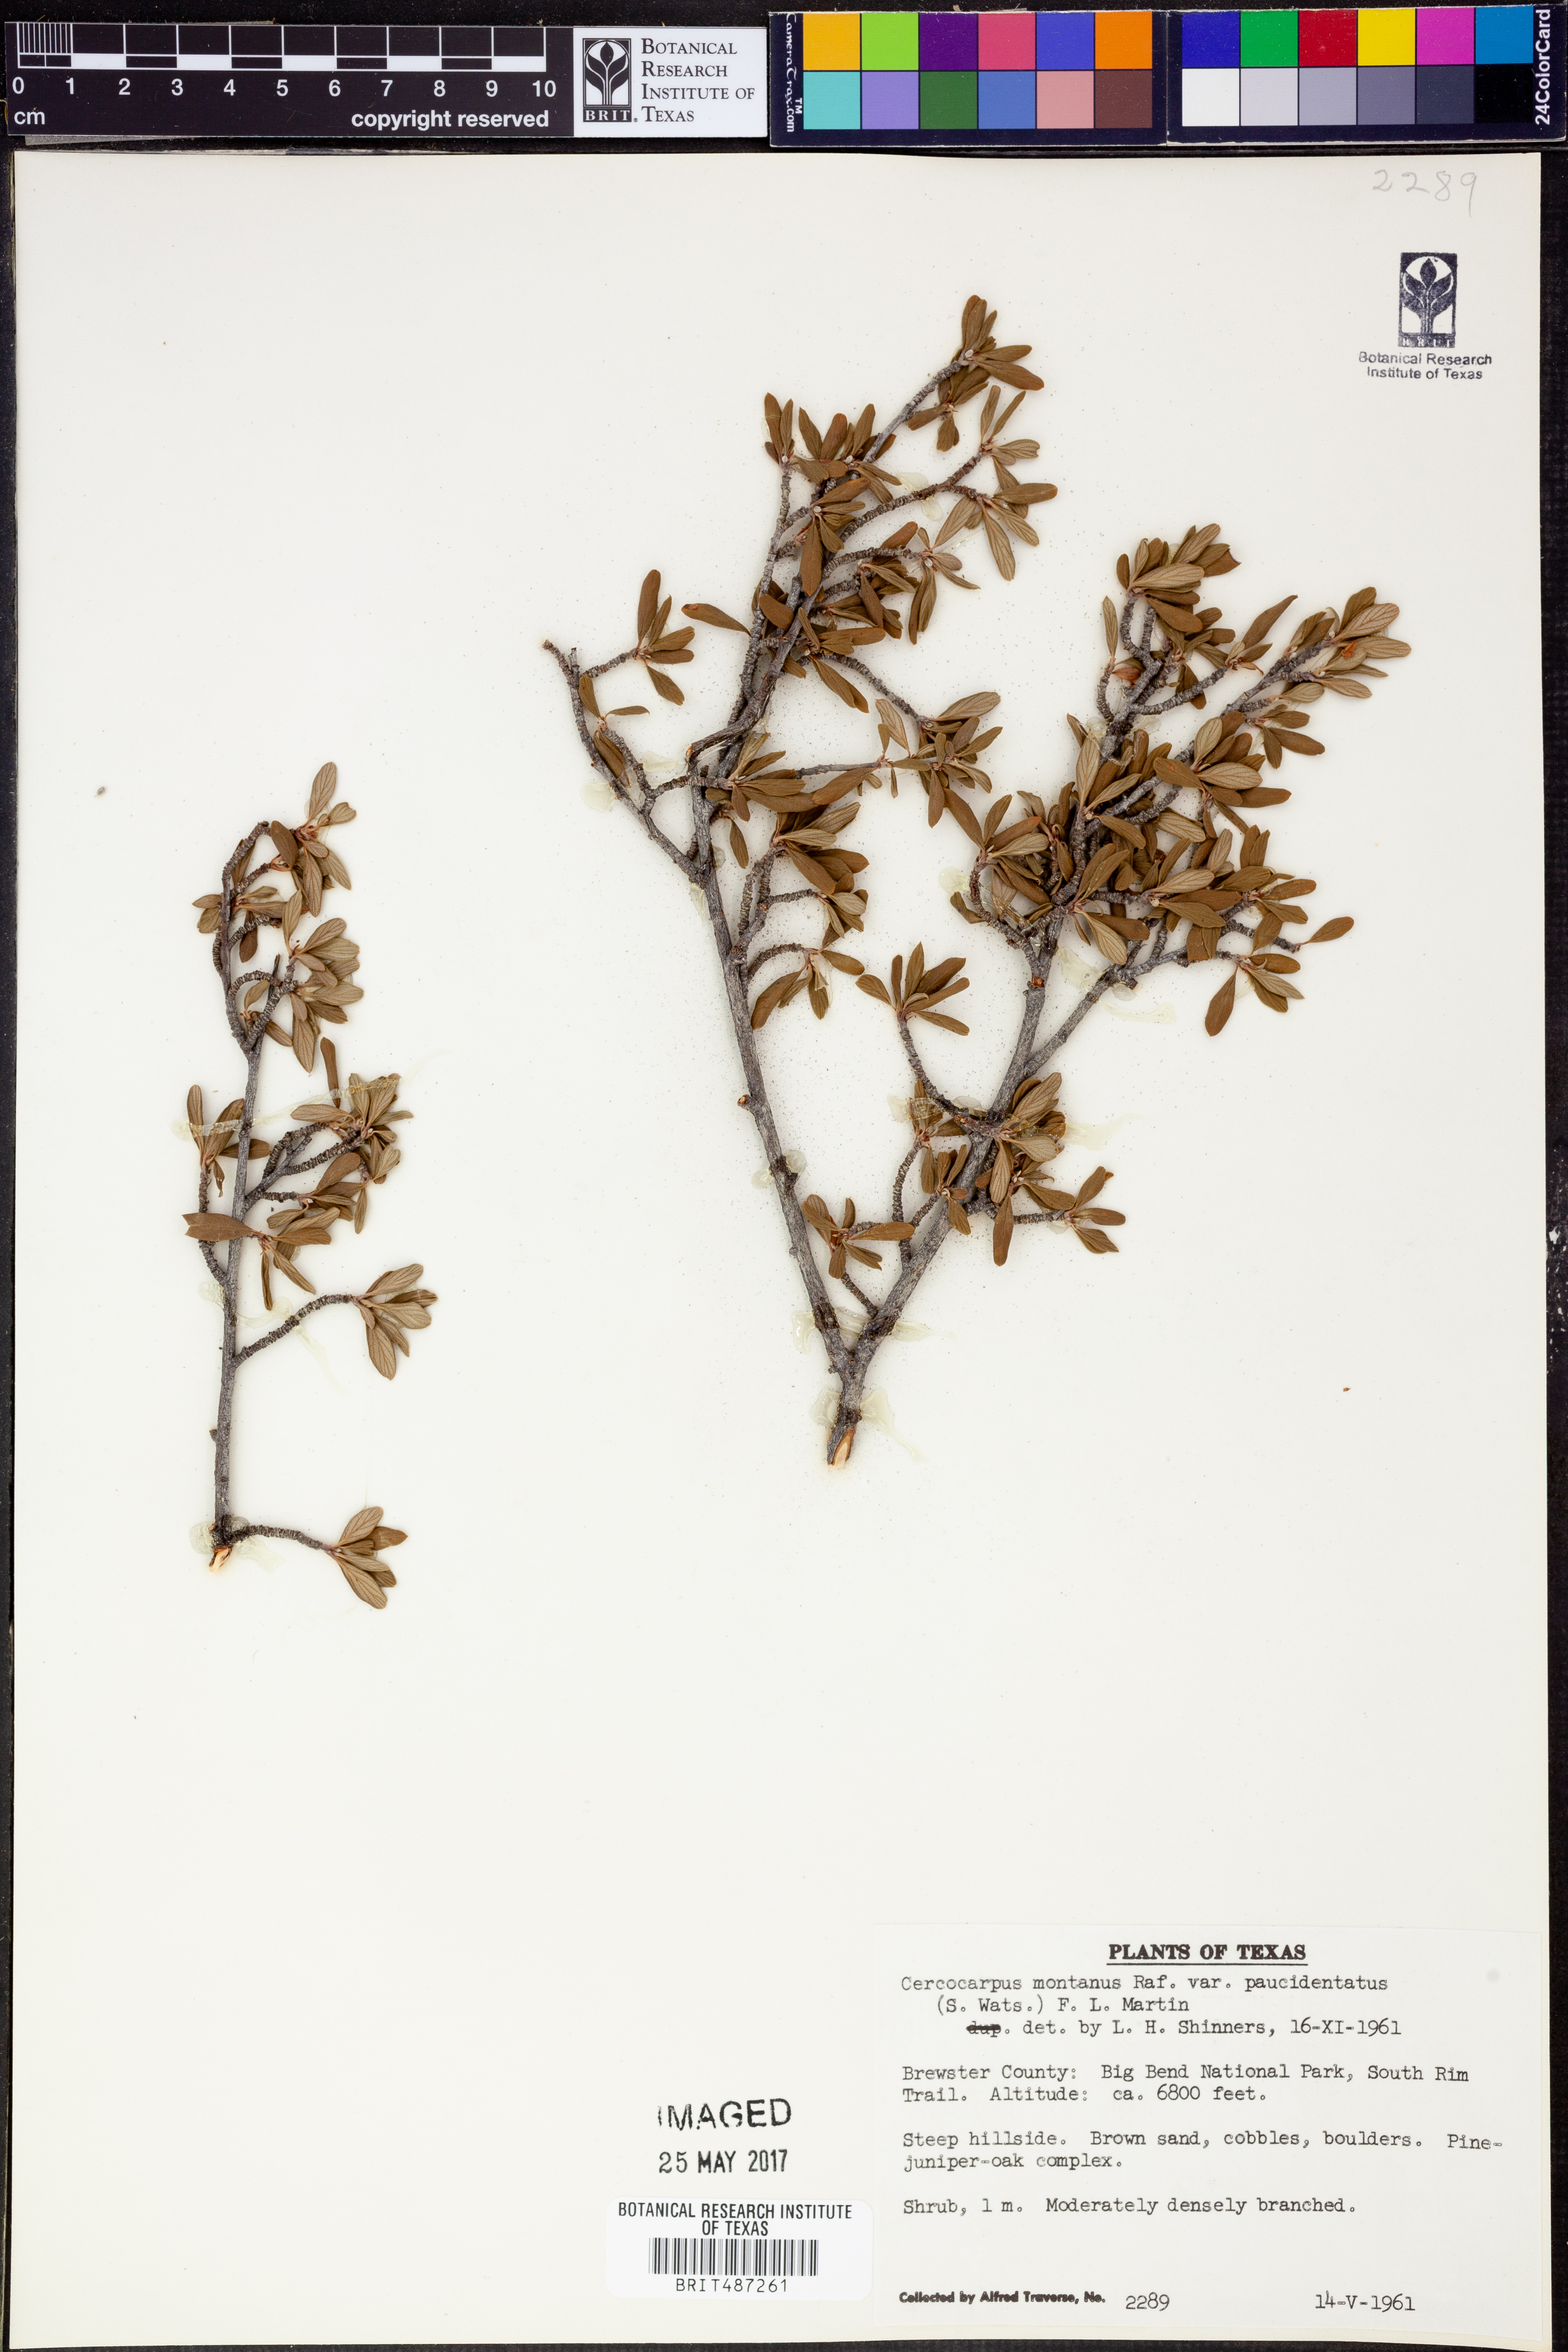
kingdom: Plantae
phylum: Tracheophyta
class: Magnoliopsida
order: Rosales
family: Rosaceae
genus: Cercocarpus
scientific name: Cercocarpus breviflorus
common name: Wright's mountain-mahogany
